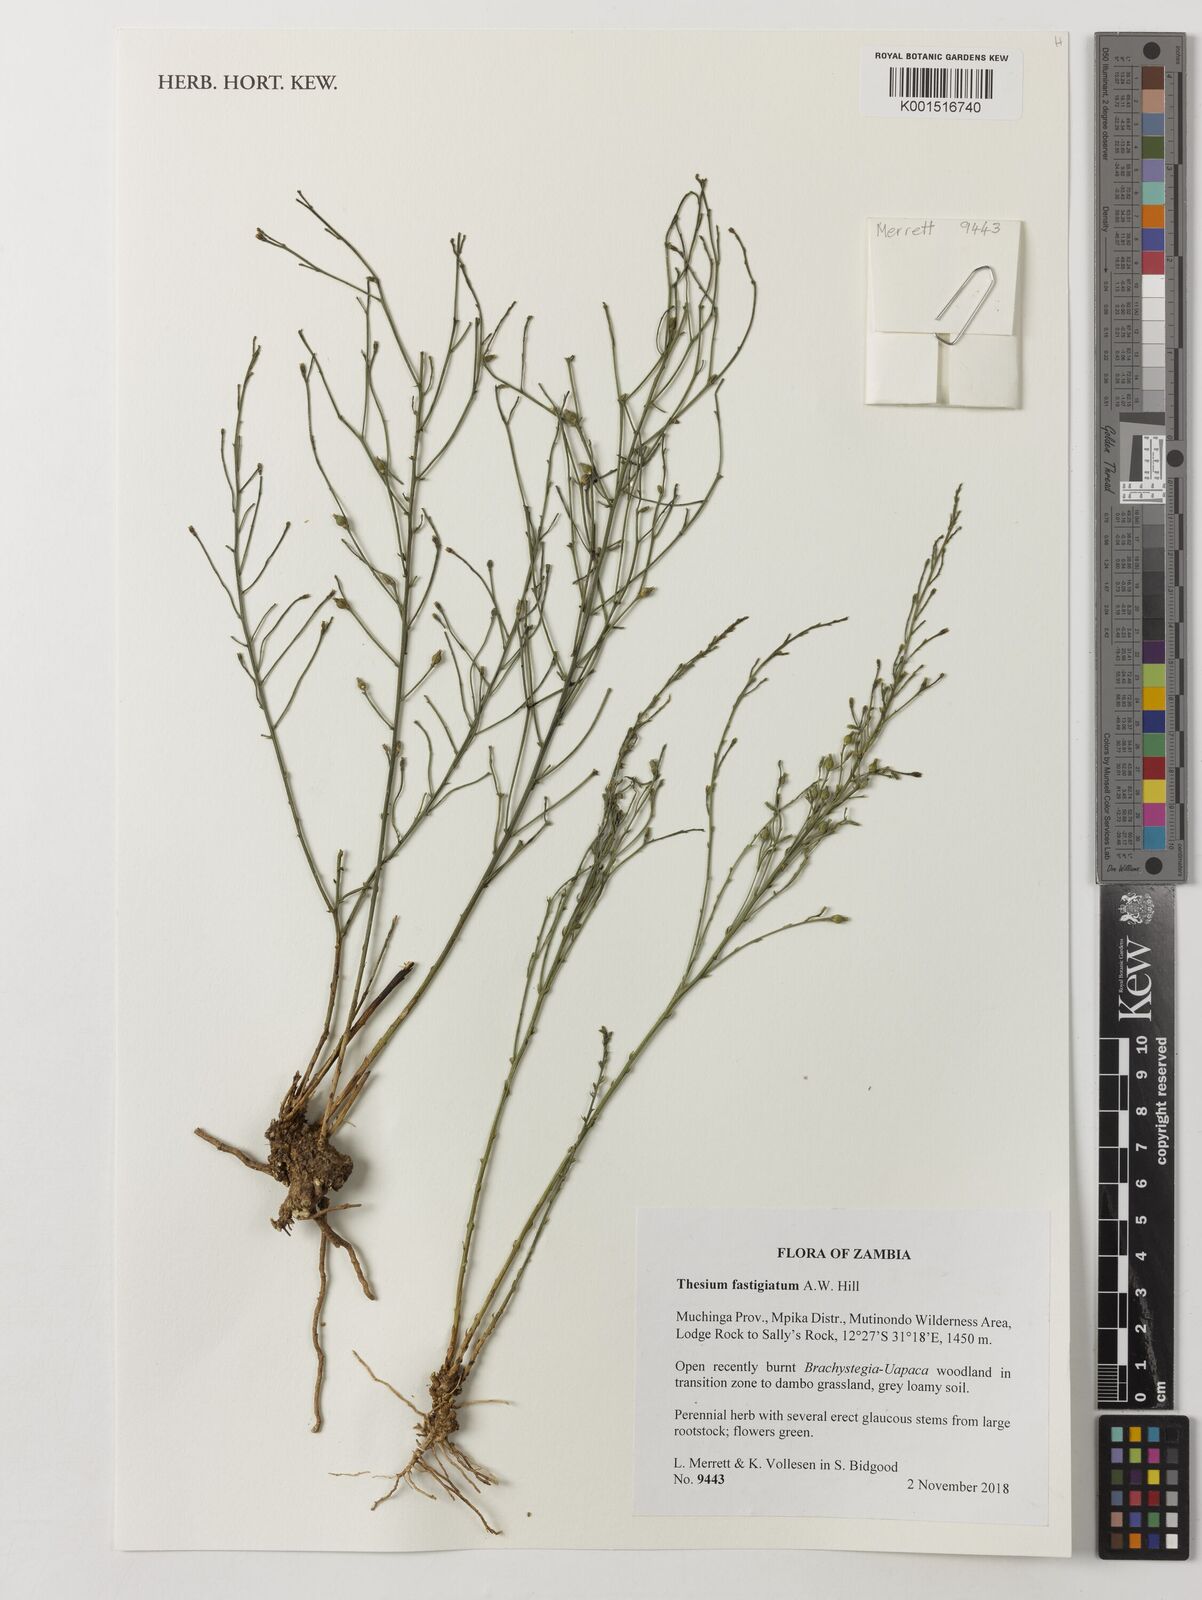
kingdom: Plantae
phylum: Tracheophyta
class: Magnoliopsida
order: Santalales
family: Thesiaceae
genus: Thesium
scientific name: Thesium fastigiatum
